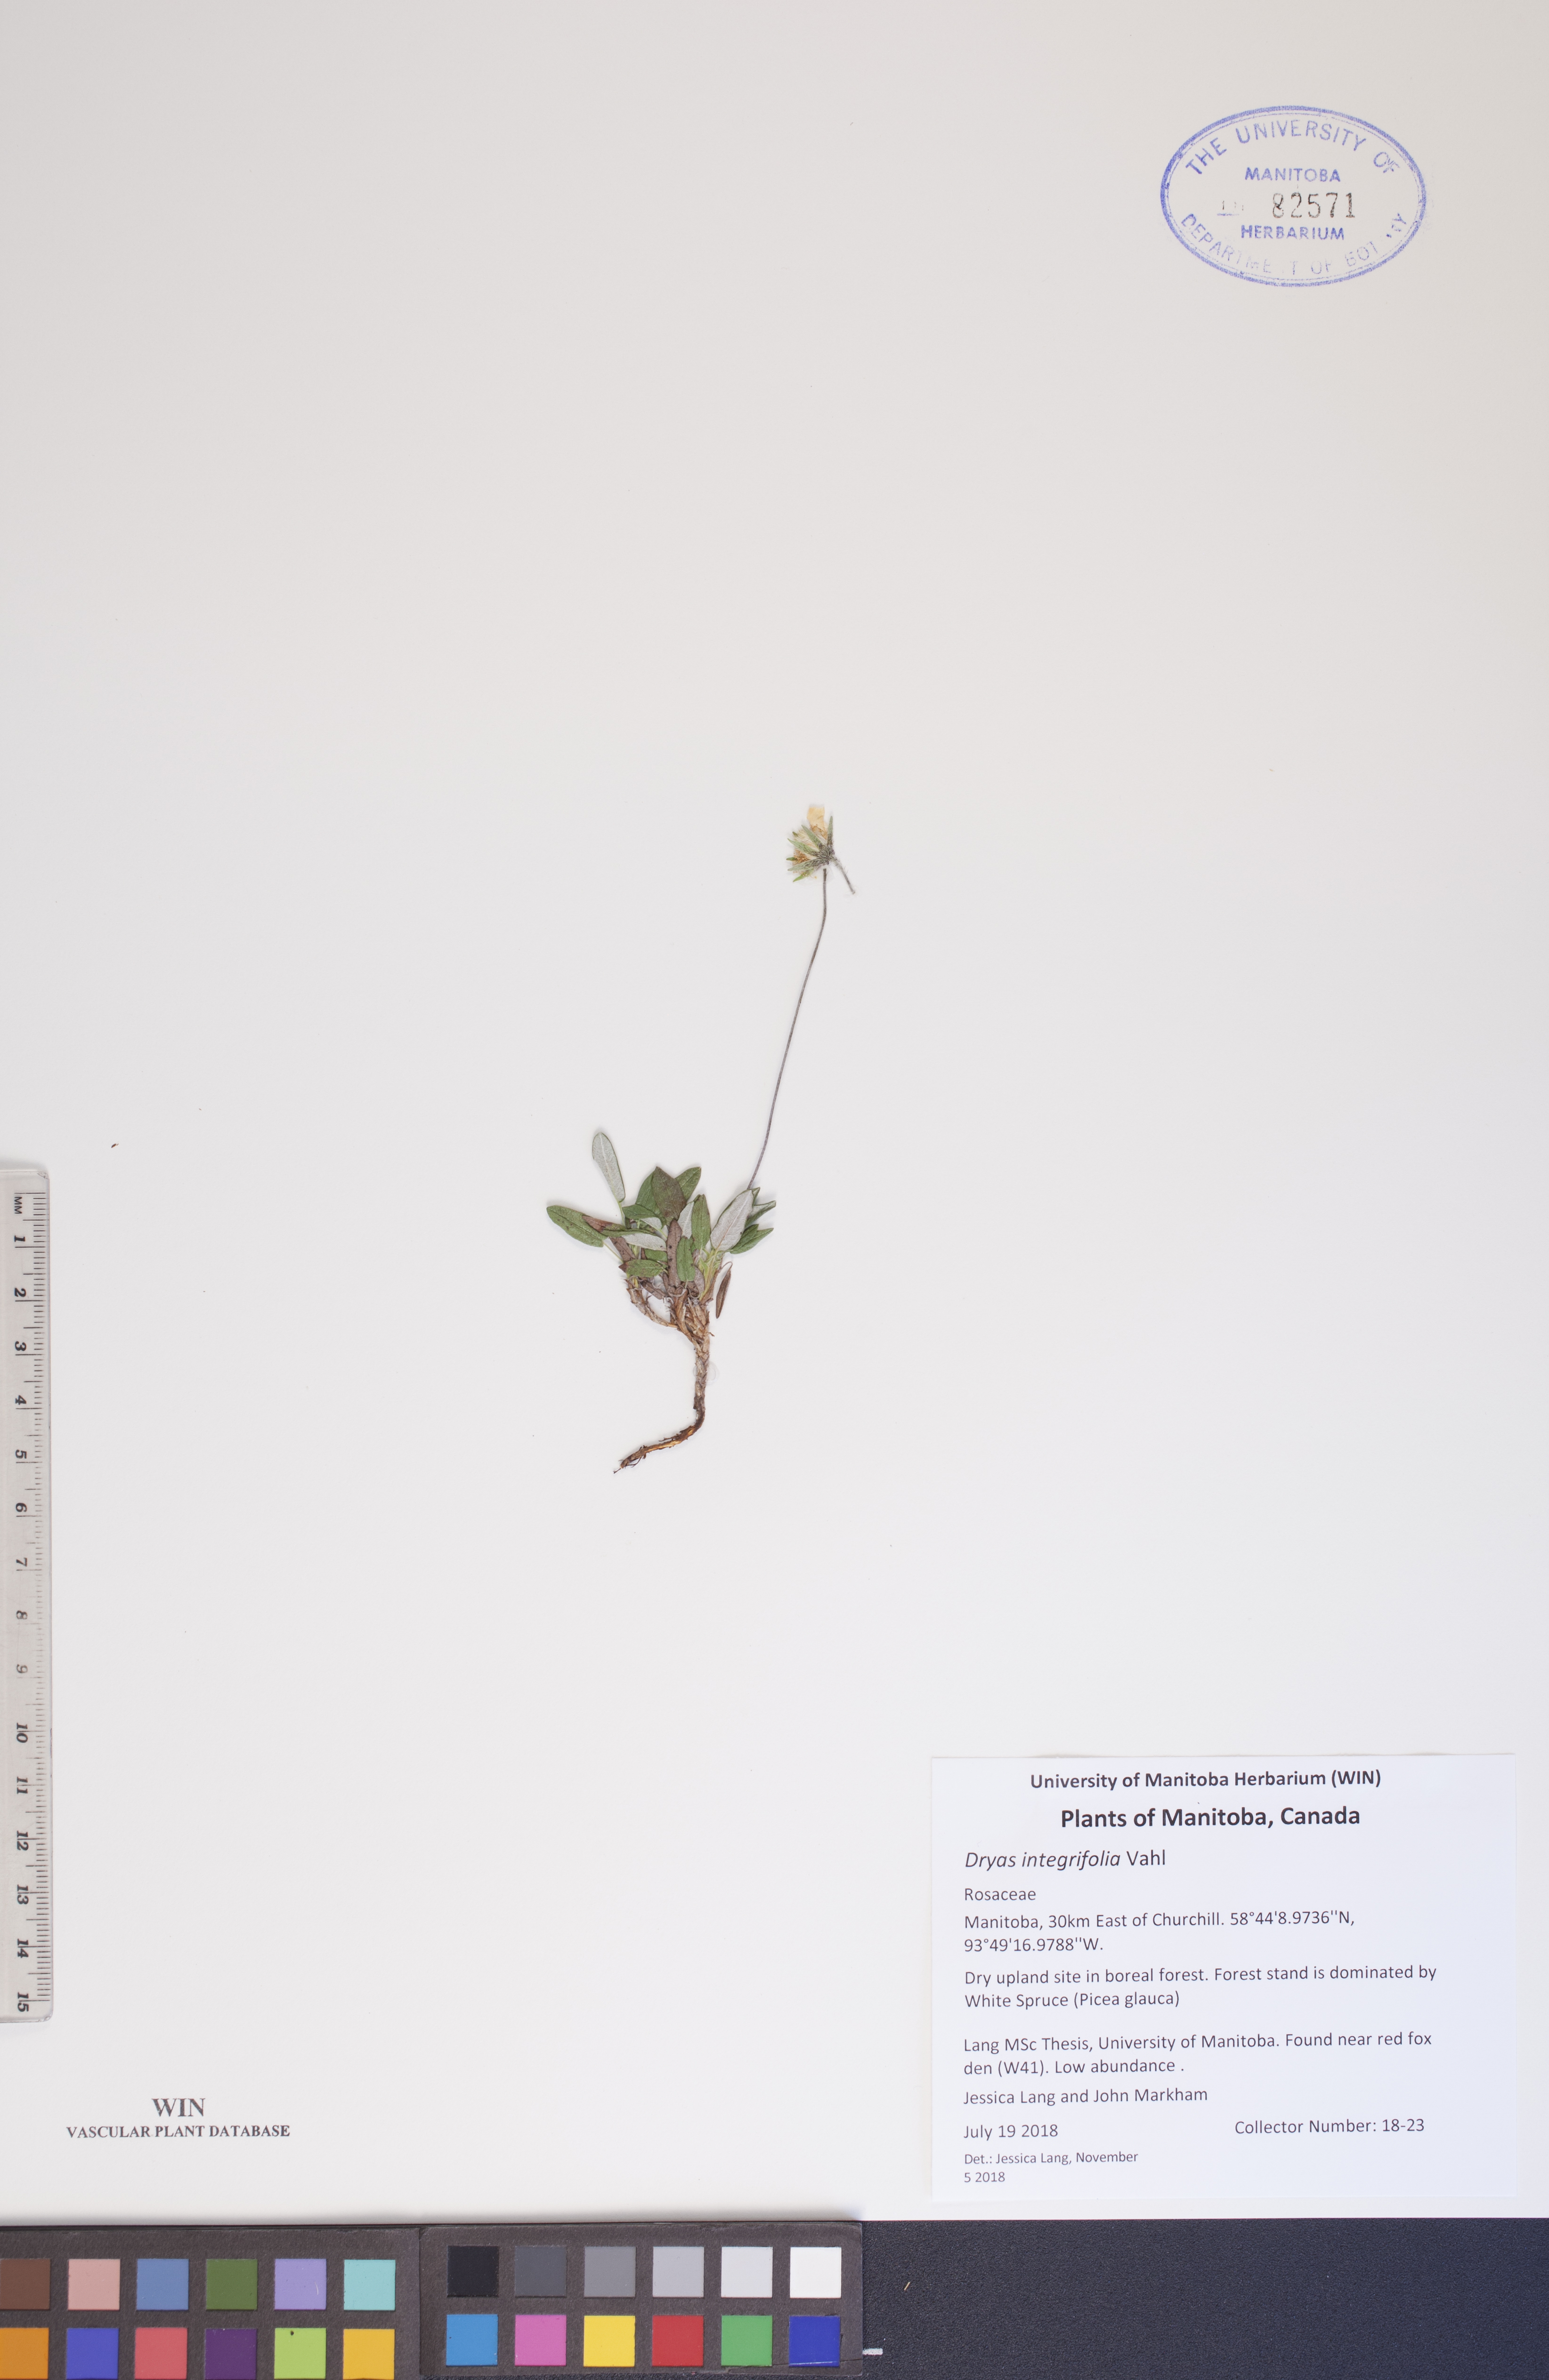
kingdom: Plantae
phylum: Tracheophyta
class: Magnoliopsida
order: Rosales
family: Rosaceae
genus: Dryas
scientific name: Dryas integrifolia
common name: Entire-leaved mountain avens
